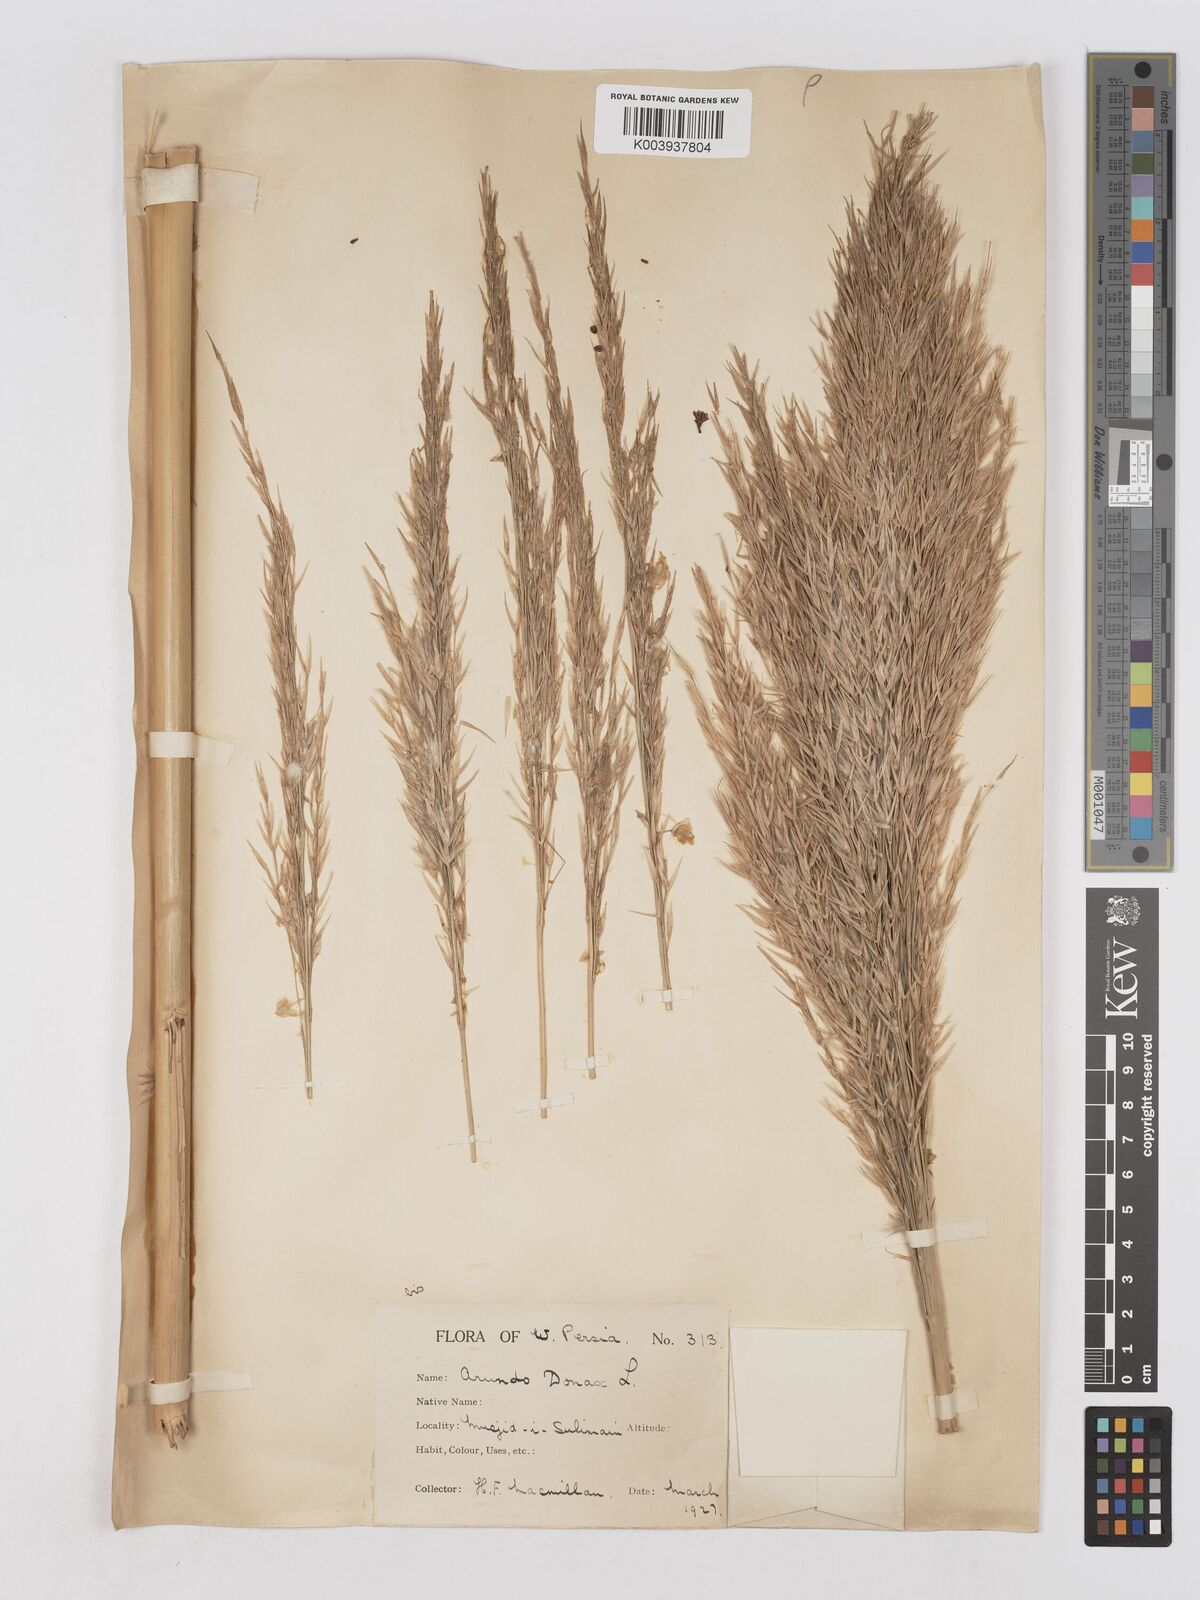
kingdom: Plantae
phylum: Tracheophyta
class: Liliopsida
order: Poales
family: Poaceae
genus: Arundo
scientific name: Arundo donax
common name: Giant reed
